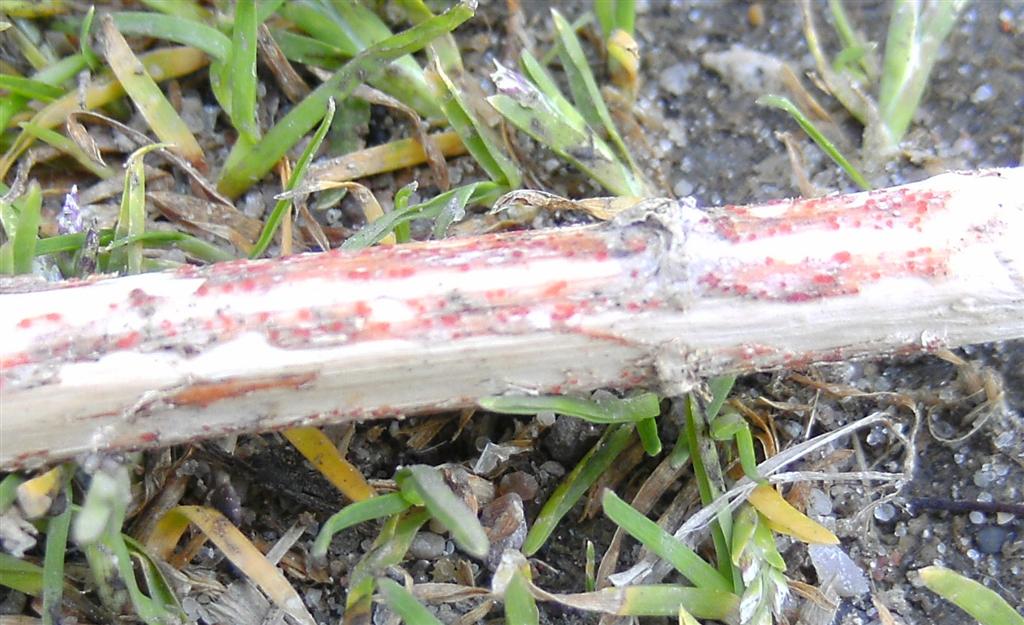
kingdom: Fungi
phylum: Ascomycota
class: Leotiomycetes
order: Helotiales
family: Calloriaceae
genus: Calloria
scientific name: Calloria urticae
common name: nælde-orangeskive
